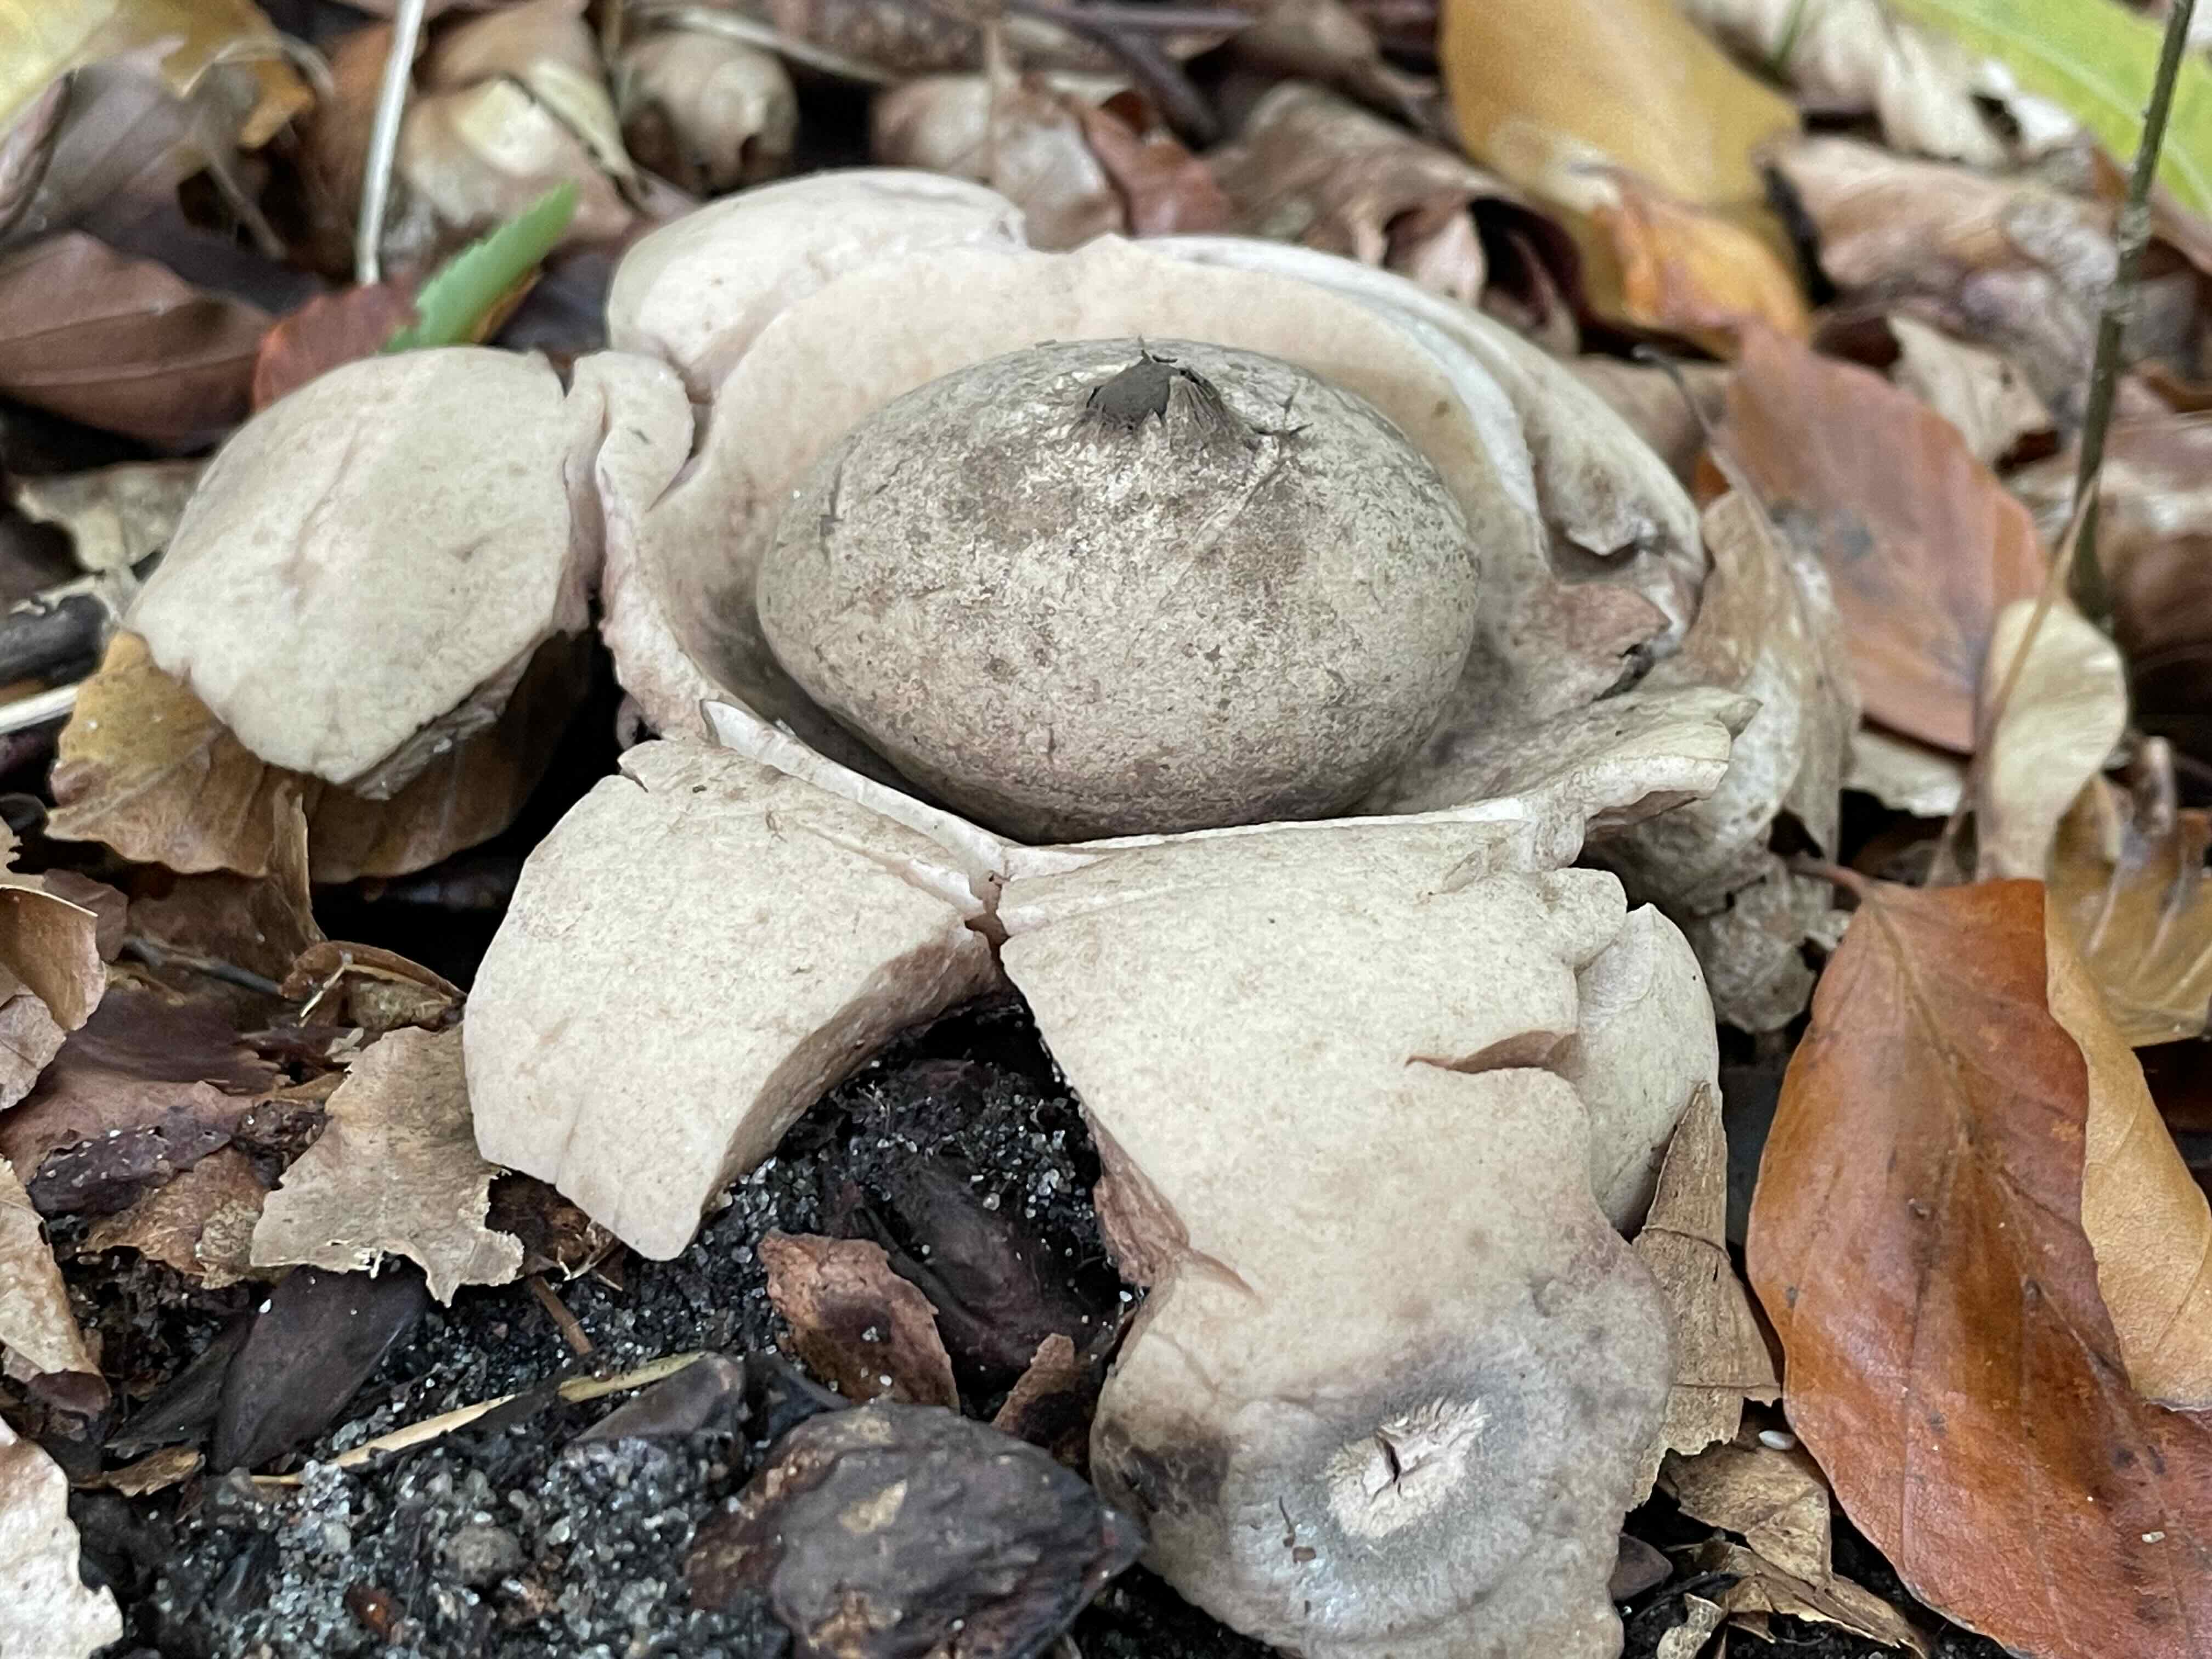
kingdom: Fungi
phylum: Basidiomycota
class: Agaricomycetes
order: Geastrales
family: Geastraceae
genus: Geastrum
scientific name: Geastrum michelianum
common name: kødet stjernebold
